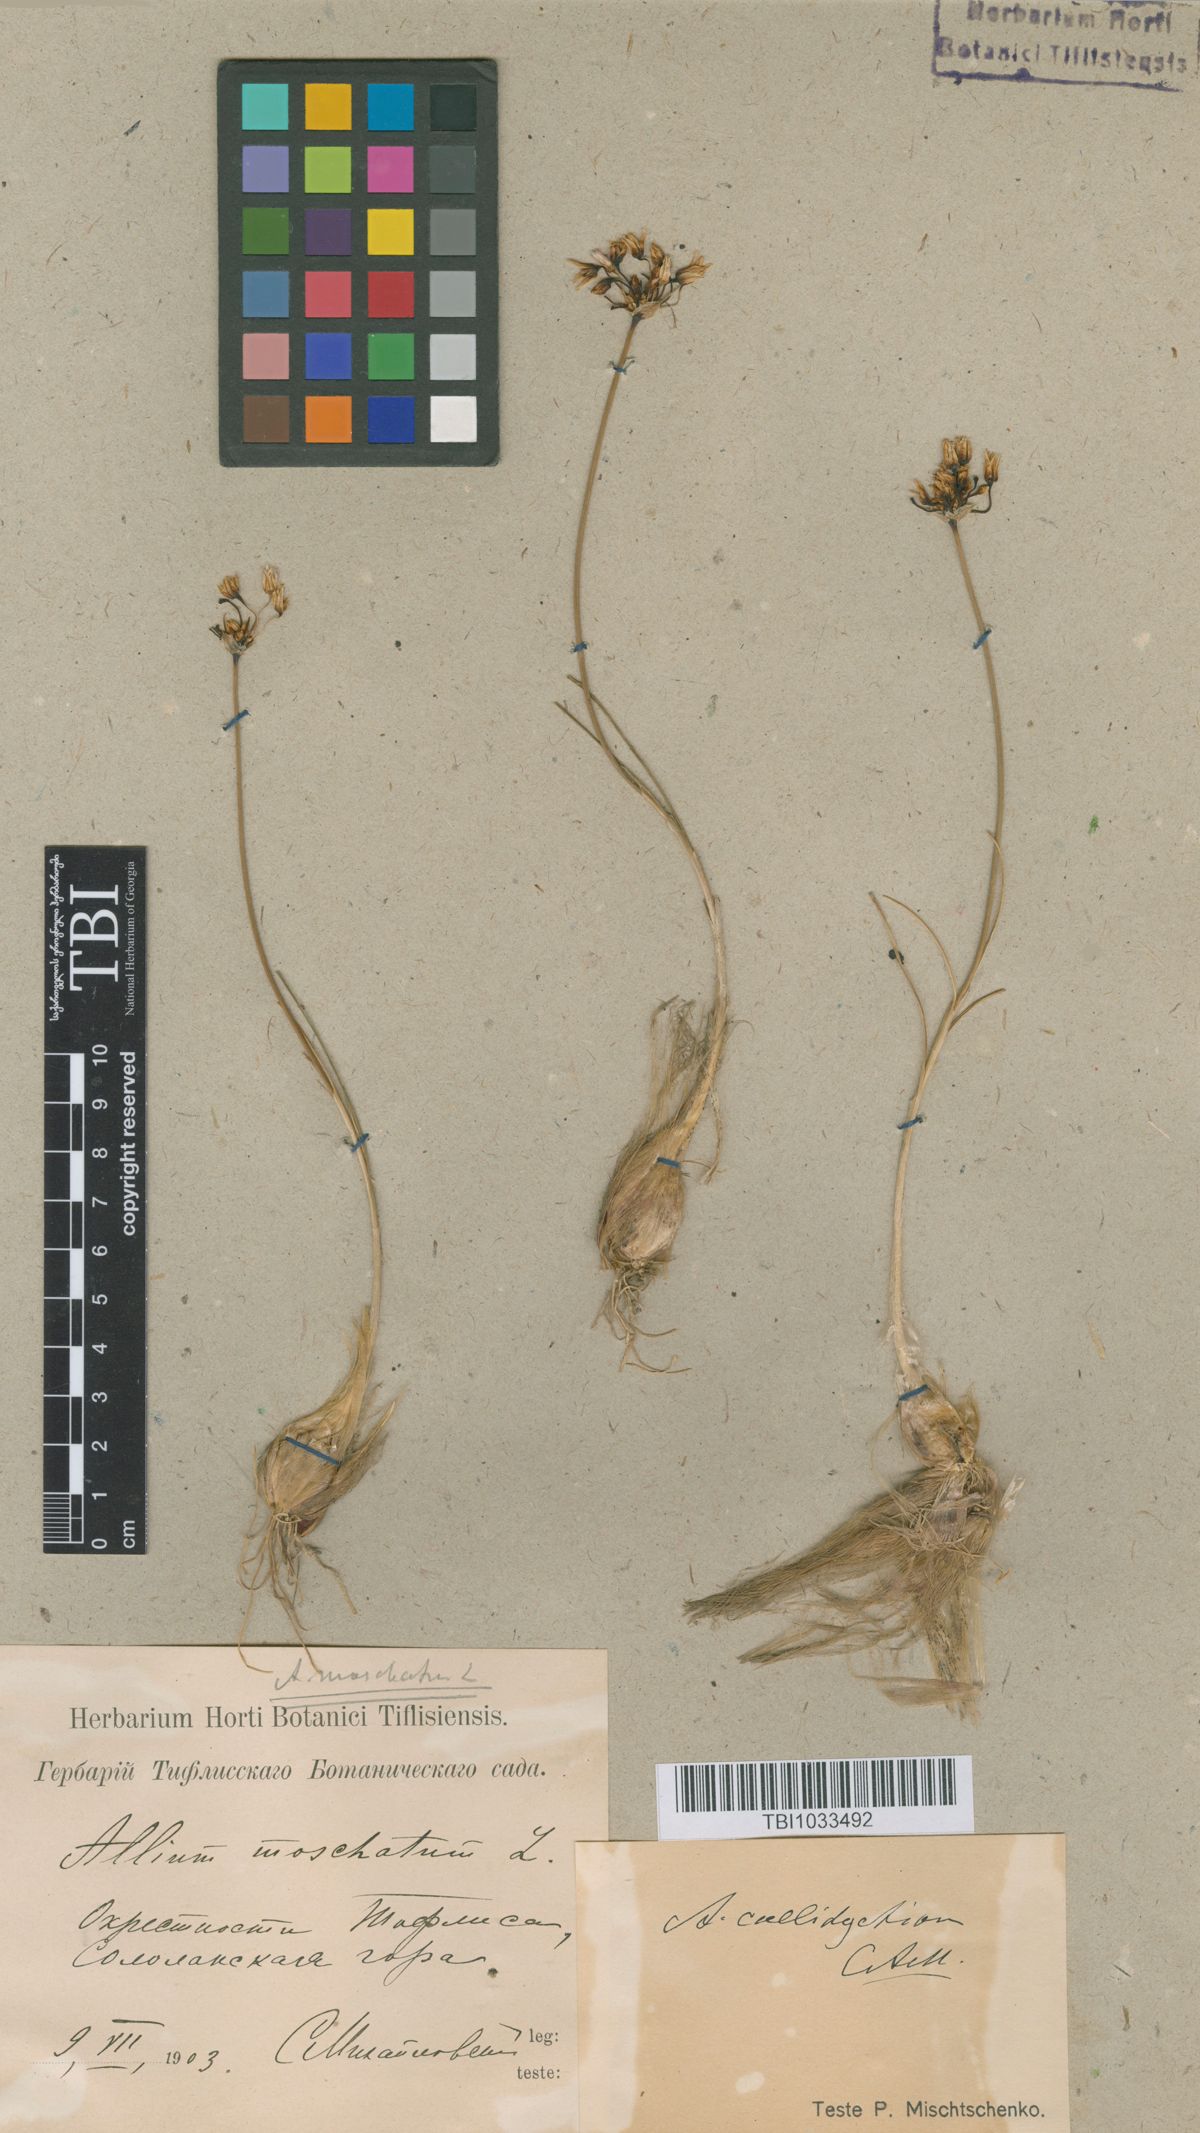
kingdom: Plantae
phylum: Tracheophyta
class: Liliopsida
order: Asparagales
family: Amaryllidaceae
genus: Allium
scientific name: Allium moschatum
